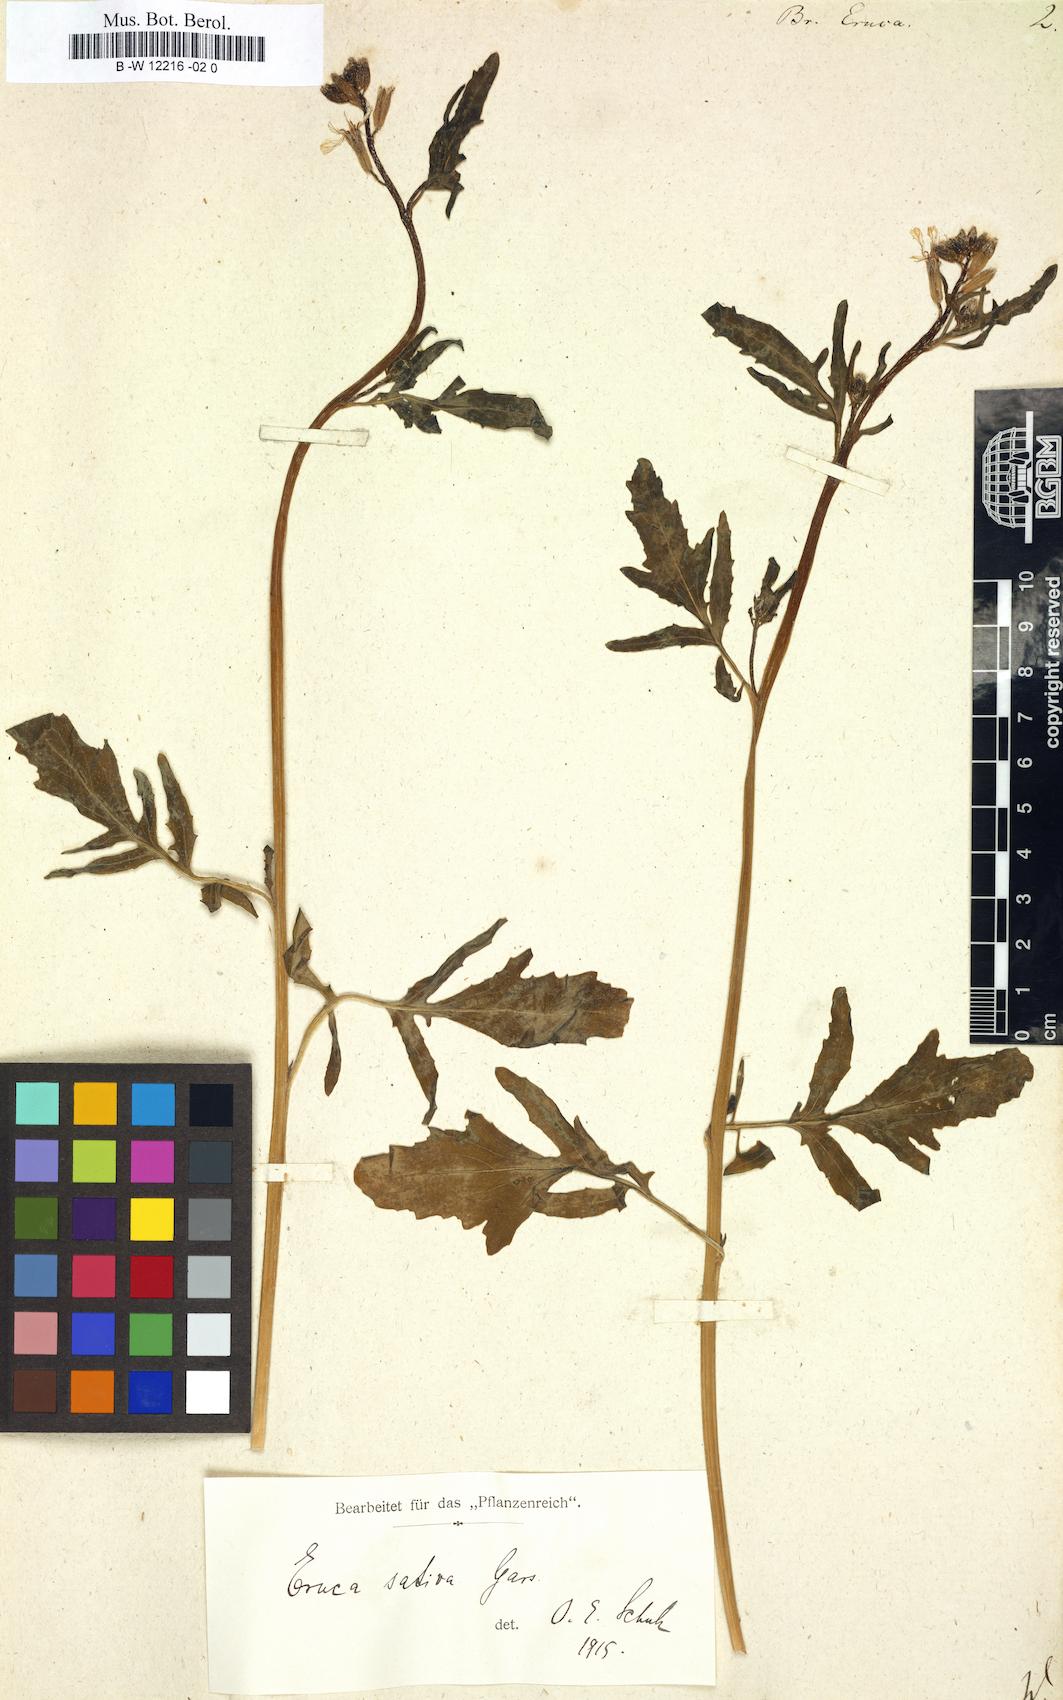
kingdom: Plantae
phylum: Tracheophyta
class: Magnoliopsida
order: Brassicales
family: Brassicaceae
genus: Brassica
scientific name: Brassica eruca
